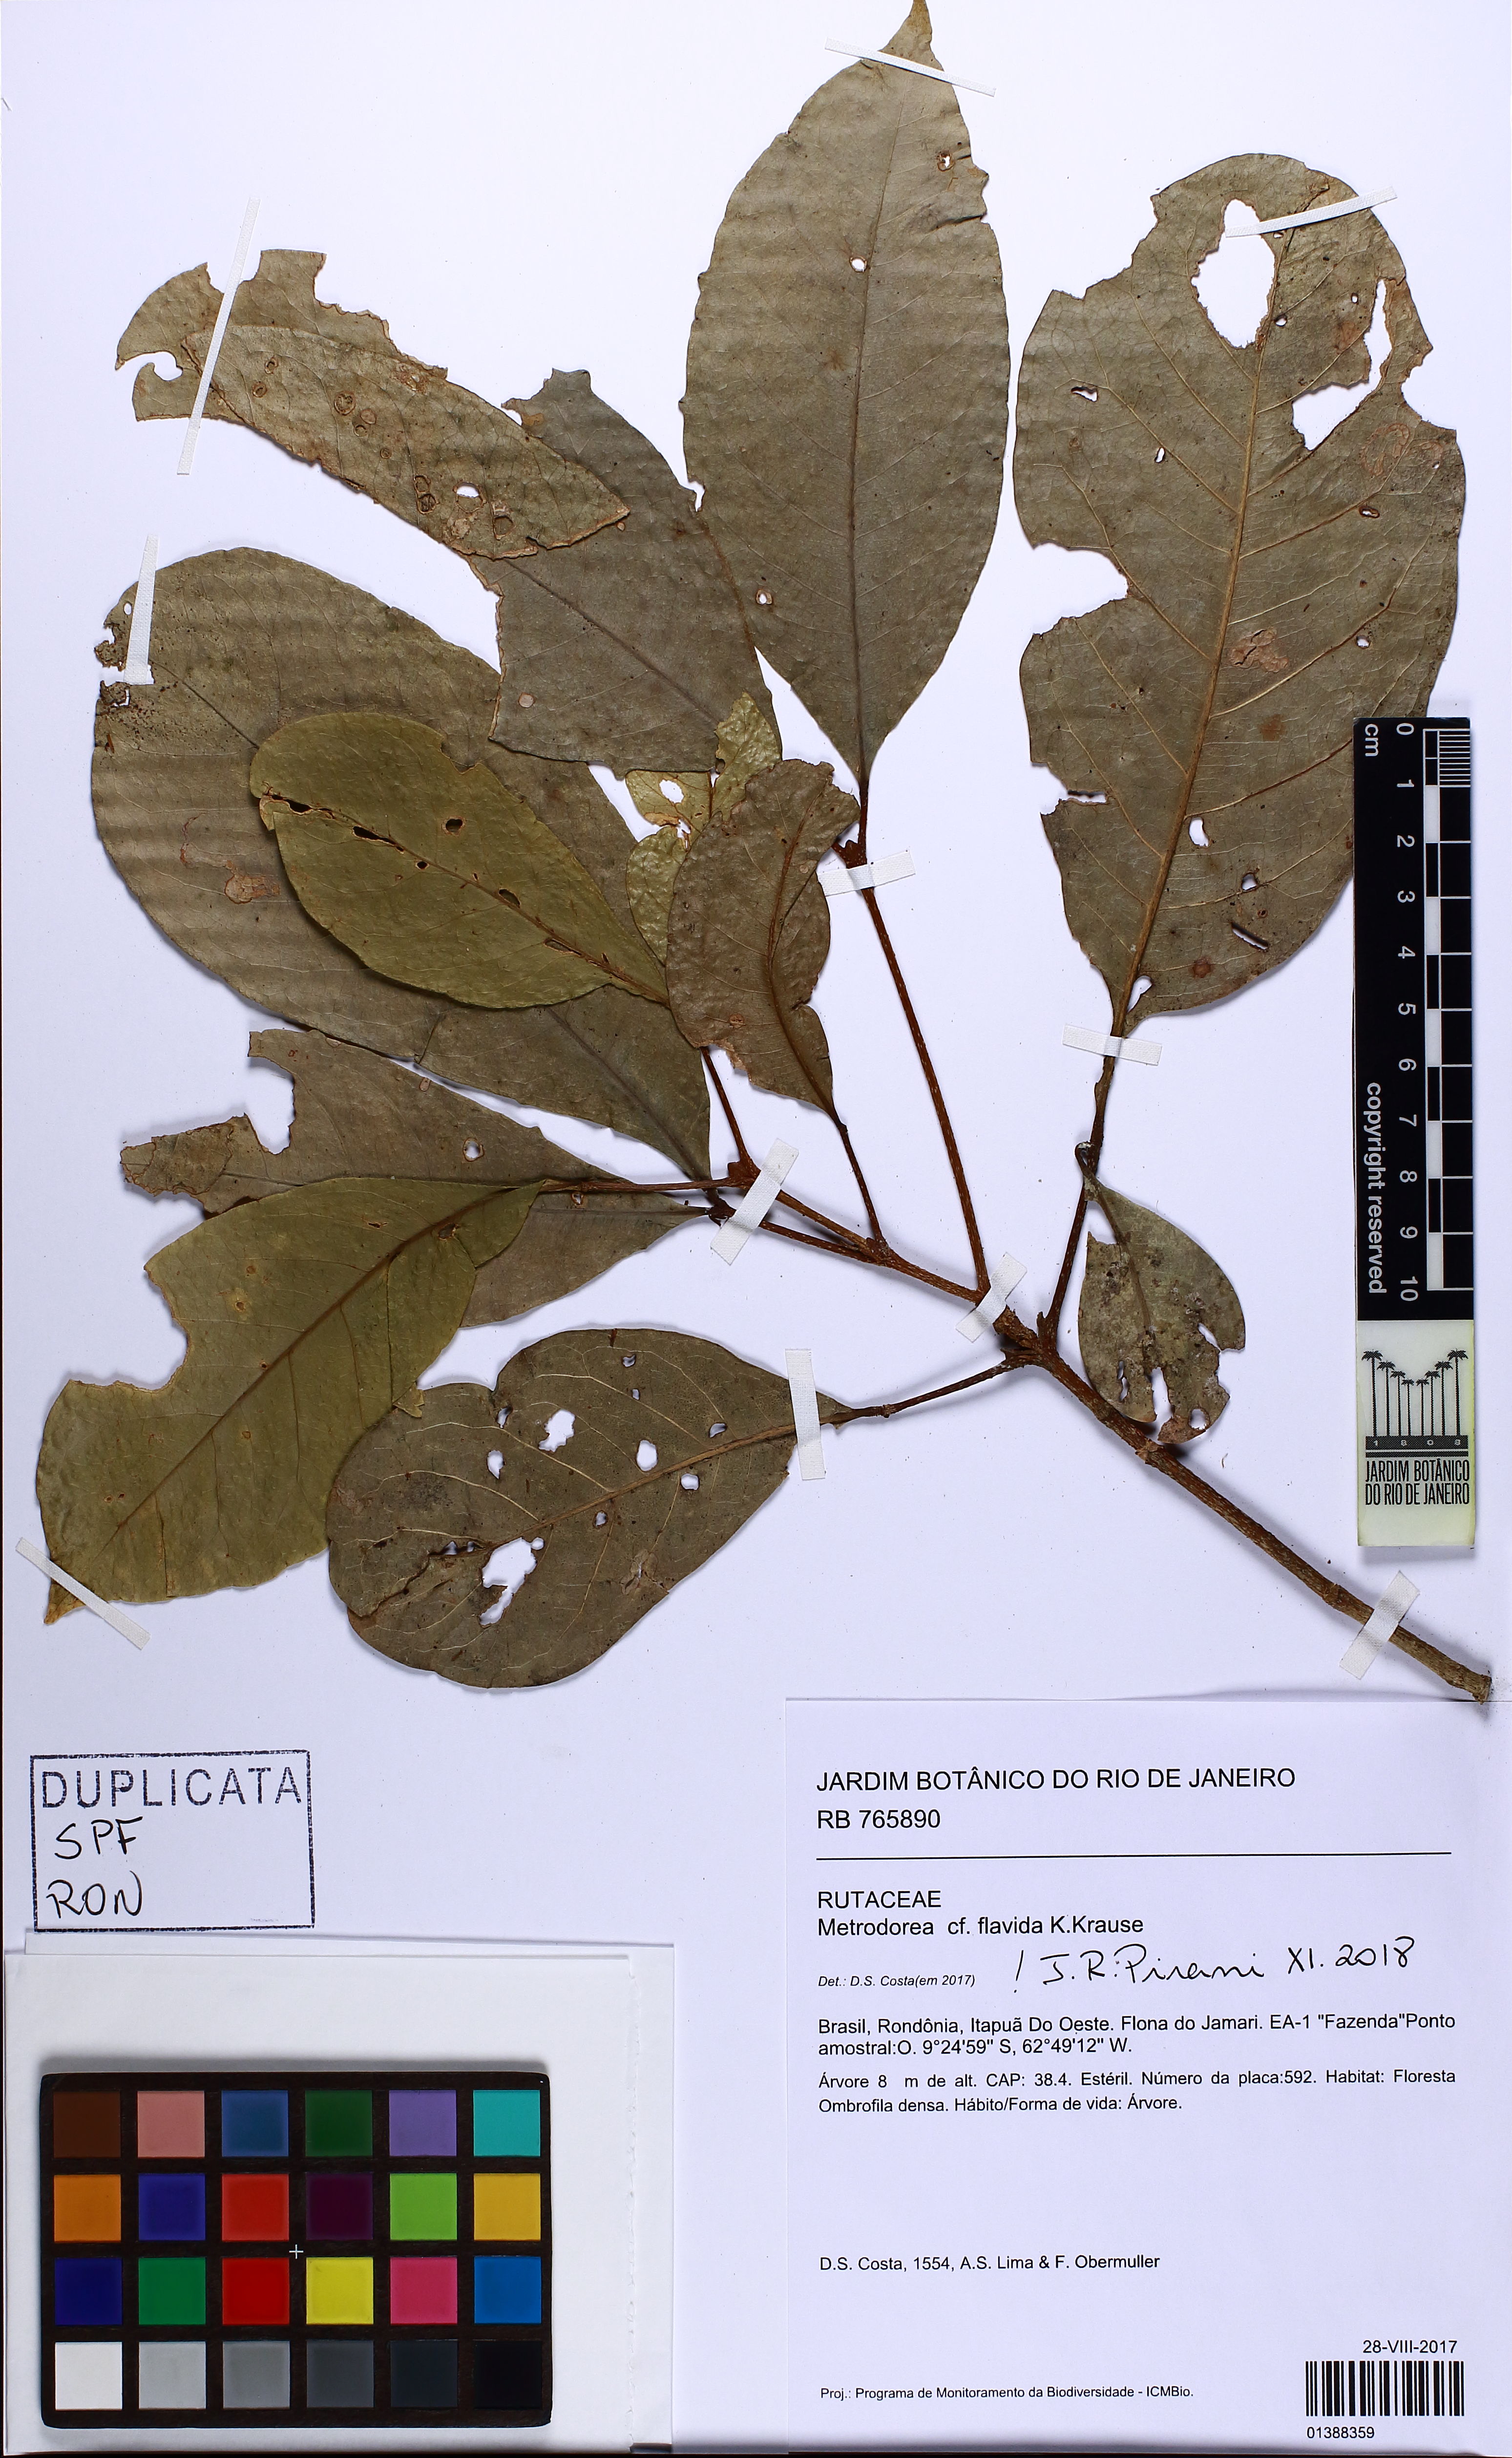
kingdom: Plantae
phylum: Tracheophyta
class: Magnoliopsida
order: Sapindales
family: Rutaceae
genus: Metrodorea
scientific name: Metrodorea flavida
